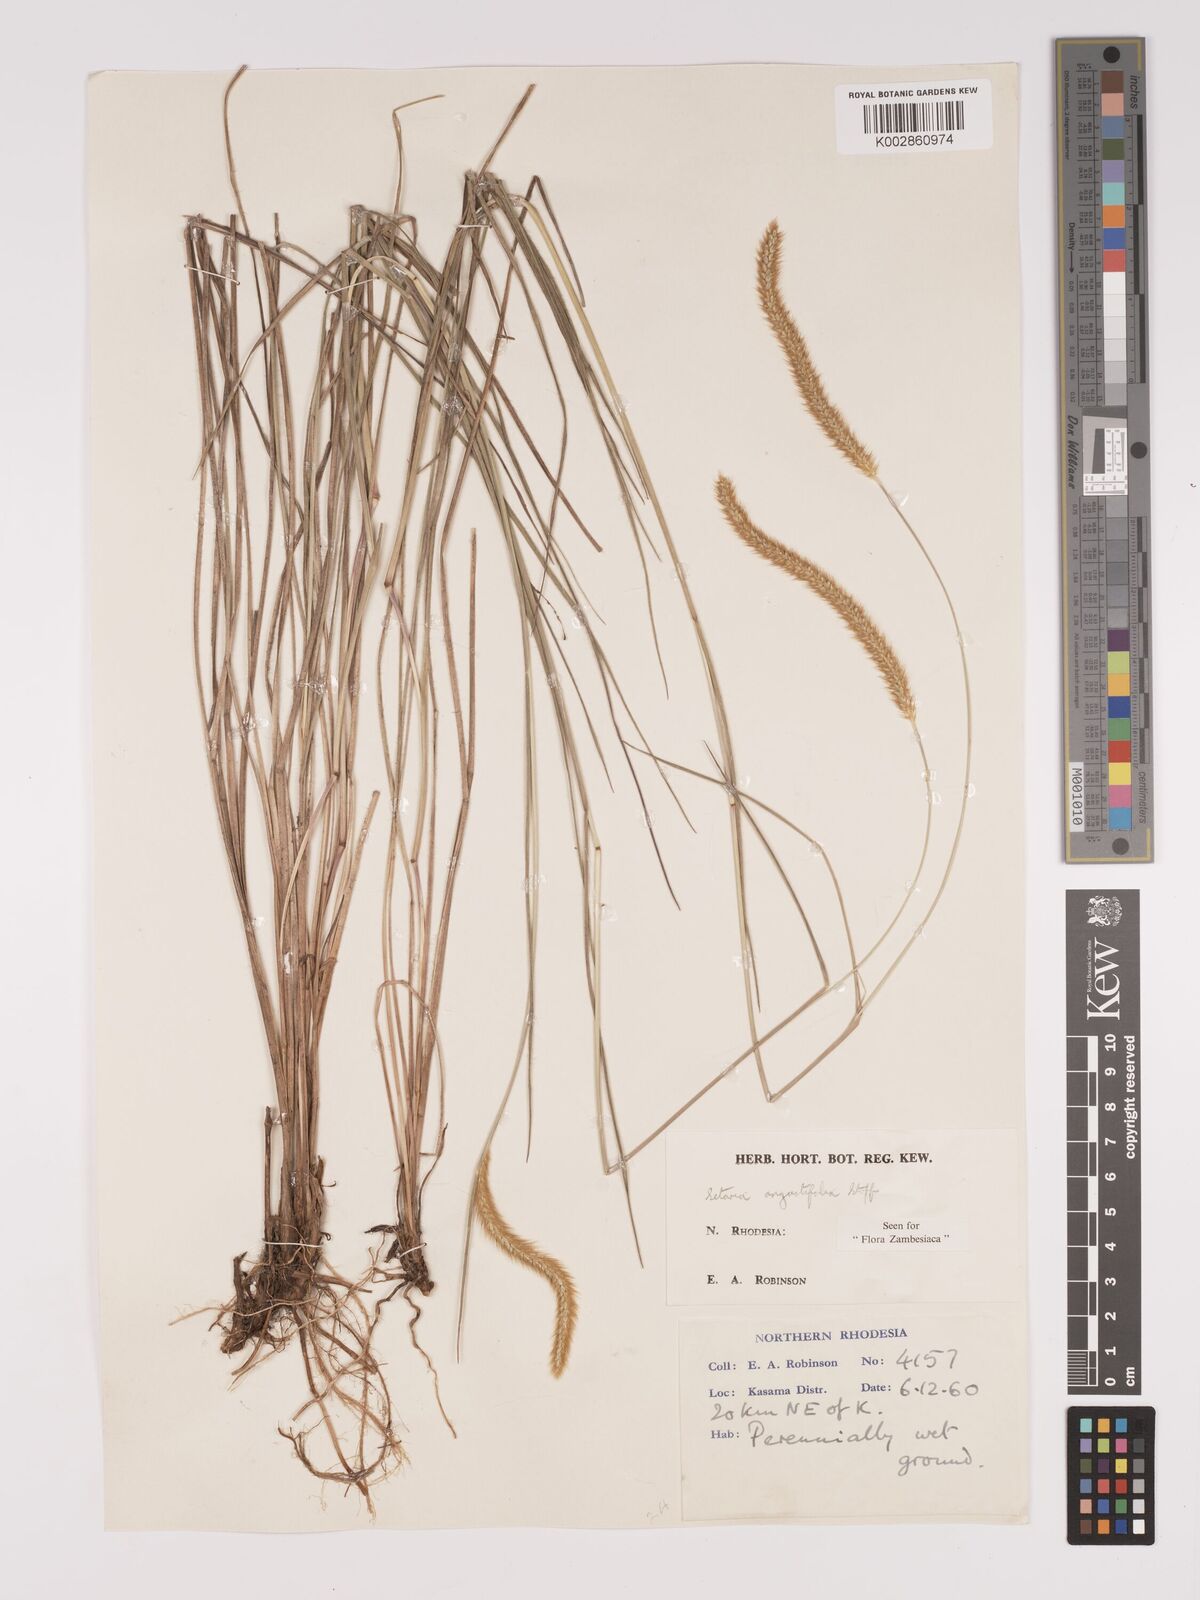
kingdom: Plantae
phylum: Tracheophyta
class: Liliopsida
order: Poales
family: Poaceae
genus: Setaria
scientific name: Setaria
